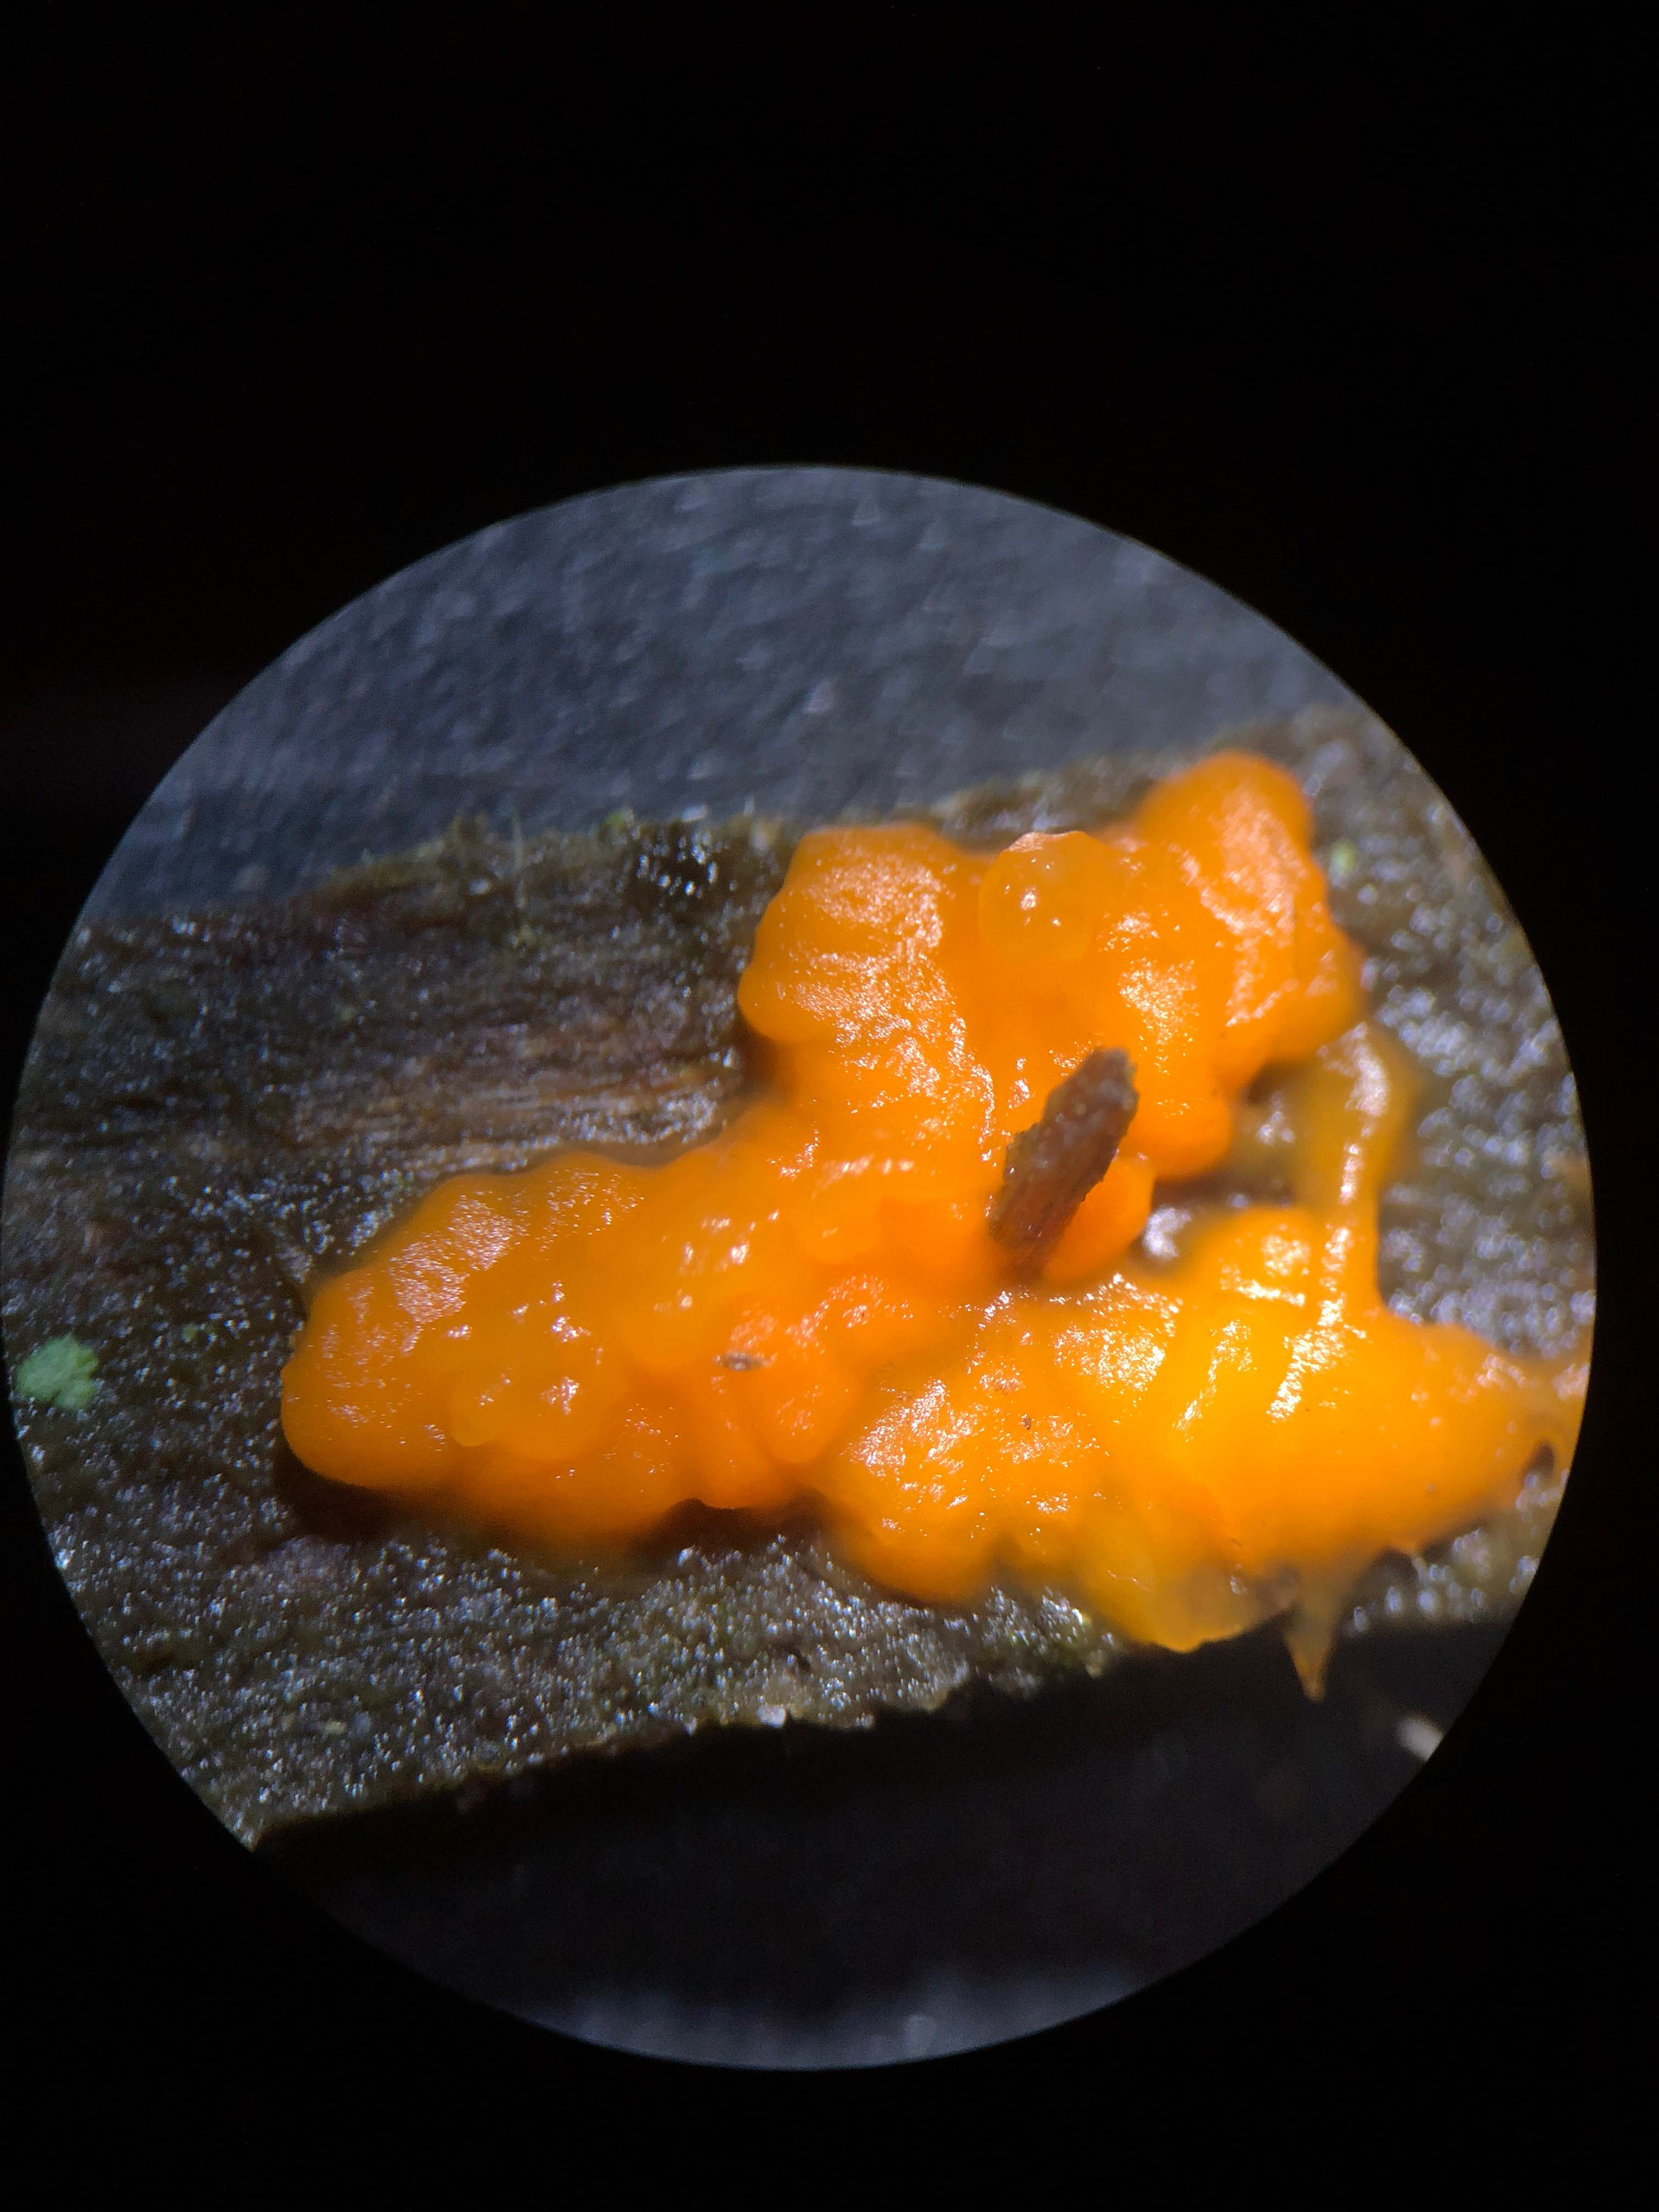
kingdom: Fungi
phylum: Basidiomycota
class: Dacrymycetes
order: Dacrymycetales
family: Dacrymycetaceae
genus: Dacrymyces
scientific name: Dacrymyces stillatus
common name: almindelig tåresvamp
